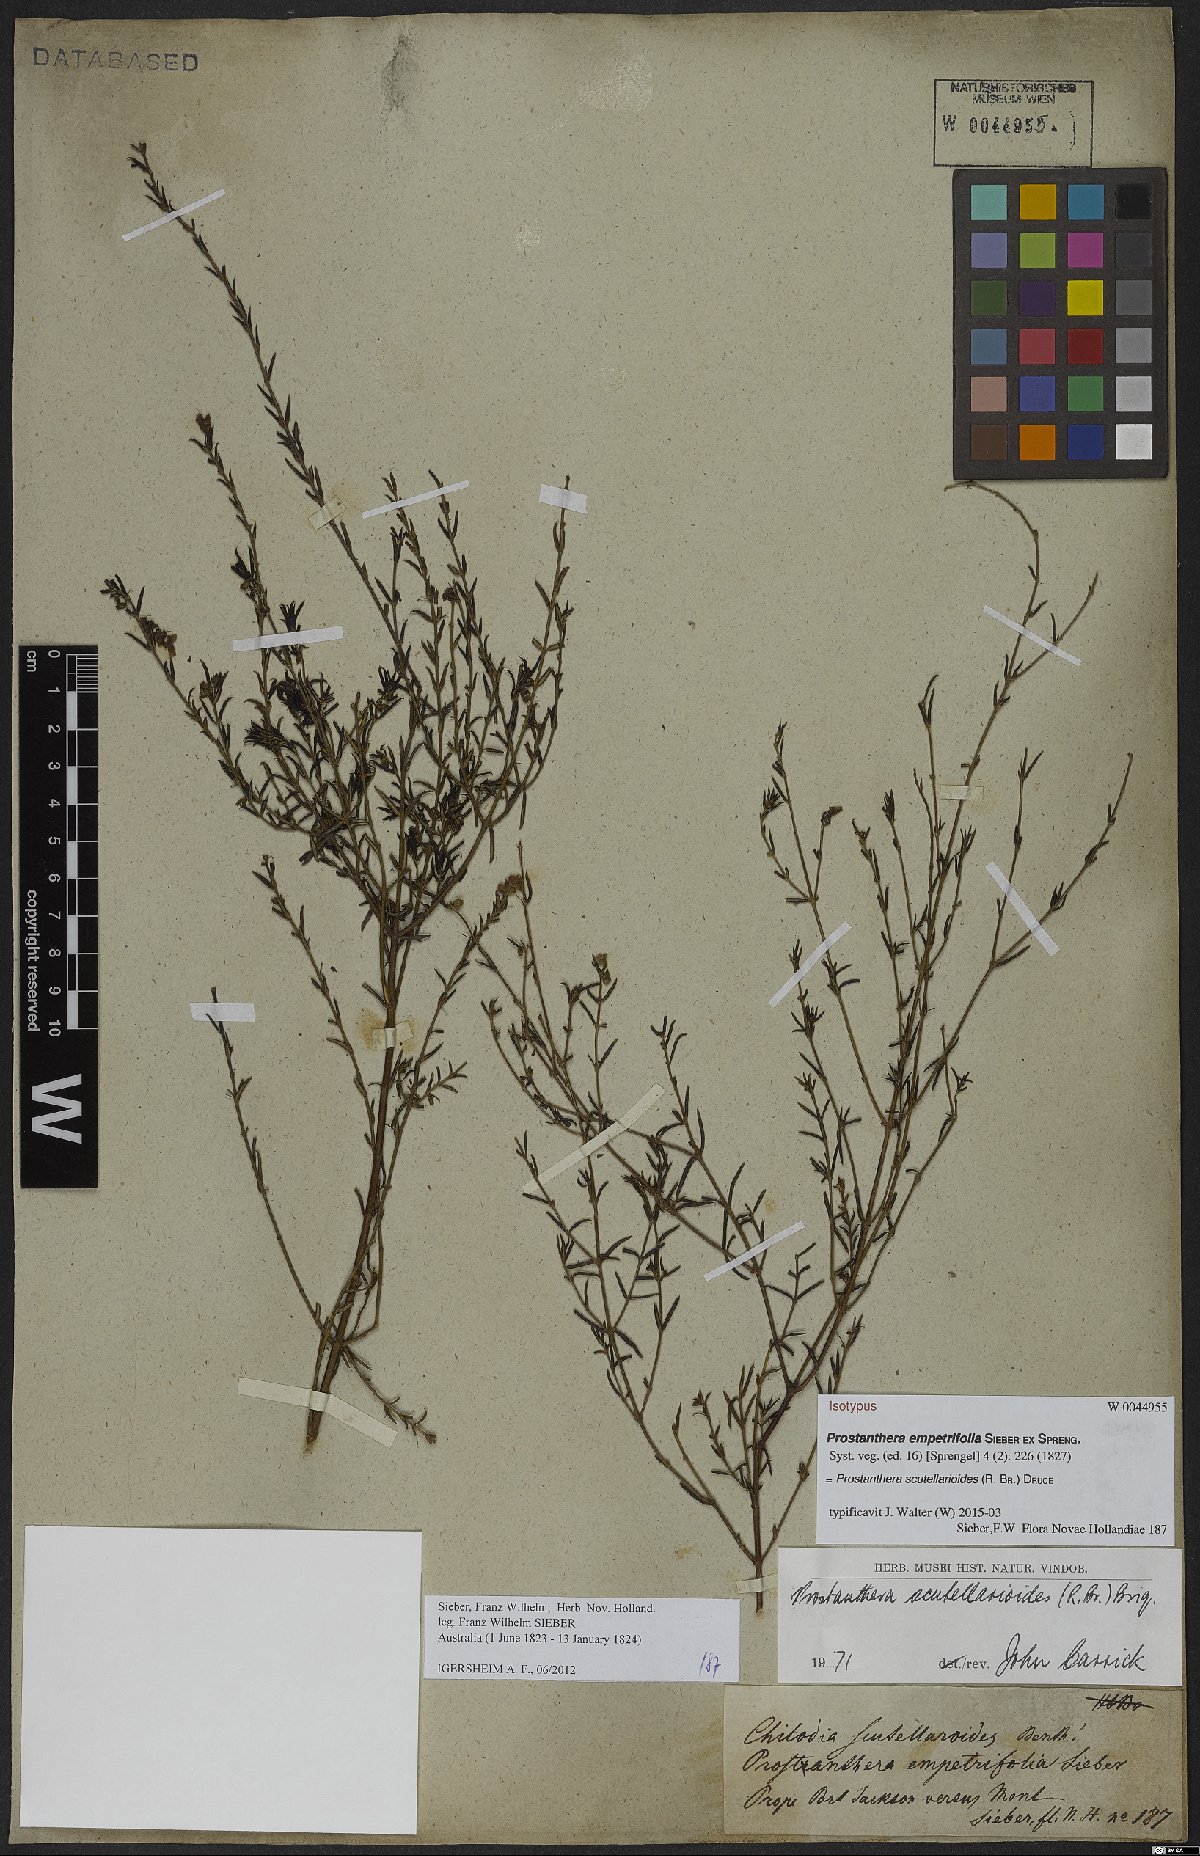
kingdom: Plantae
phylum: Tracheophyta
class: Magnoliopsida
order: Lamiales
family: Lamiaceae
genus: Prostanthera
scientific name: Prostanthera scutellarioides
